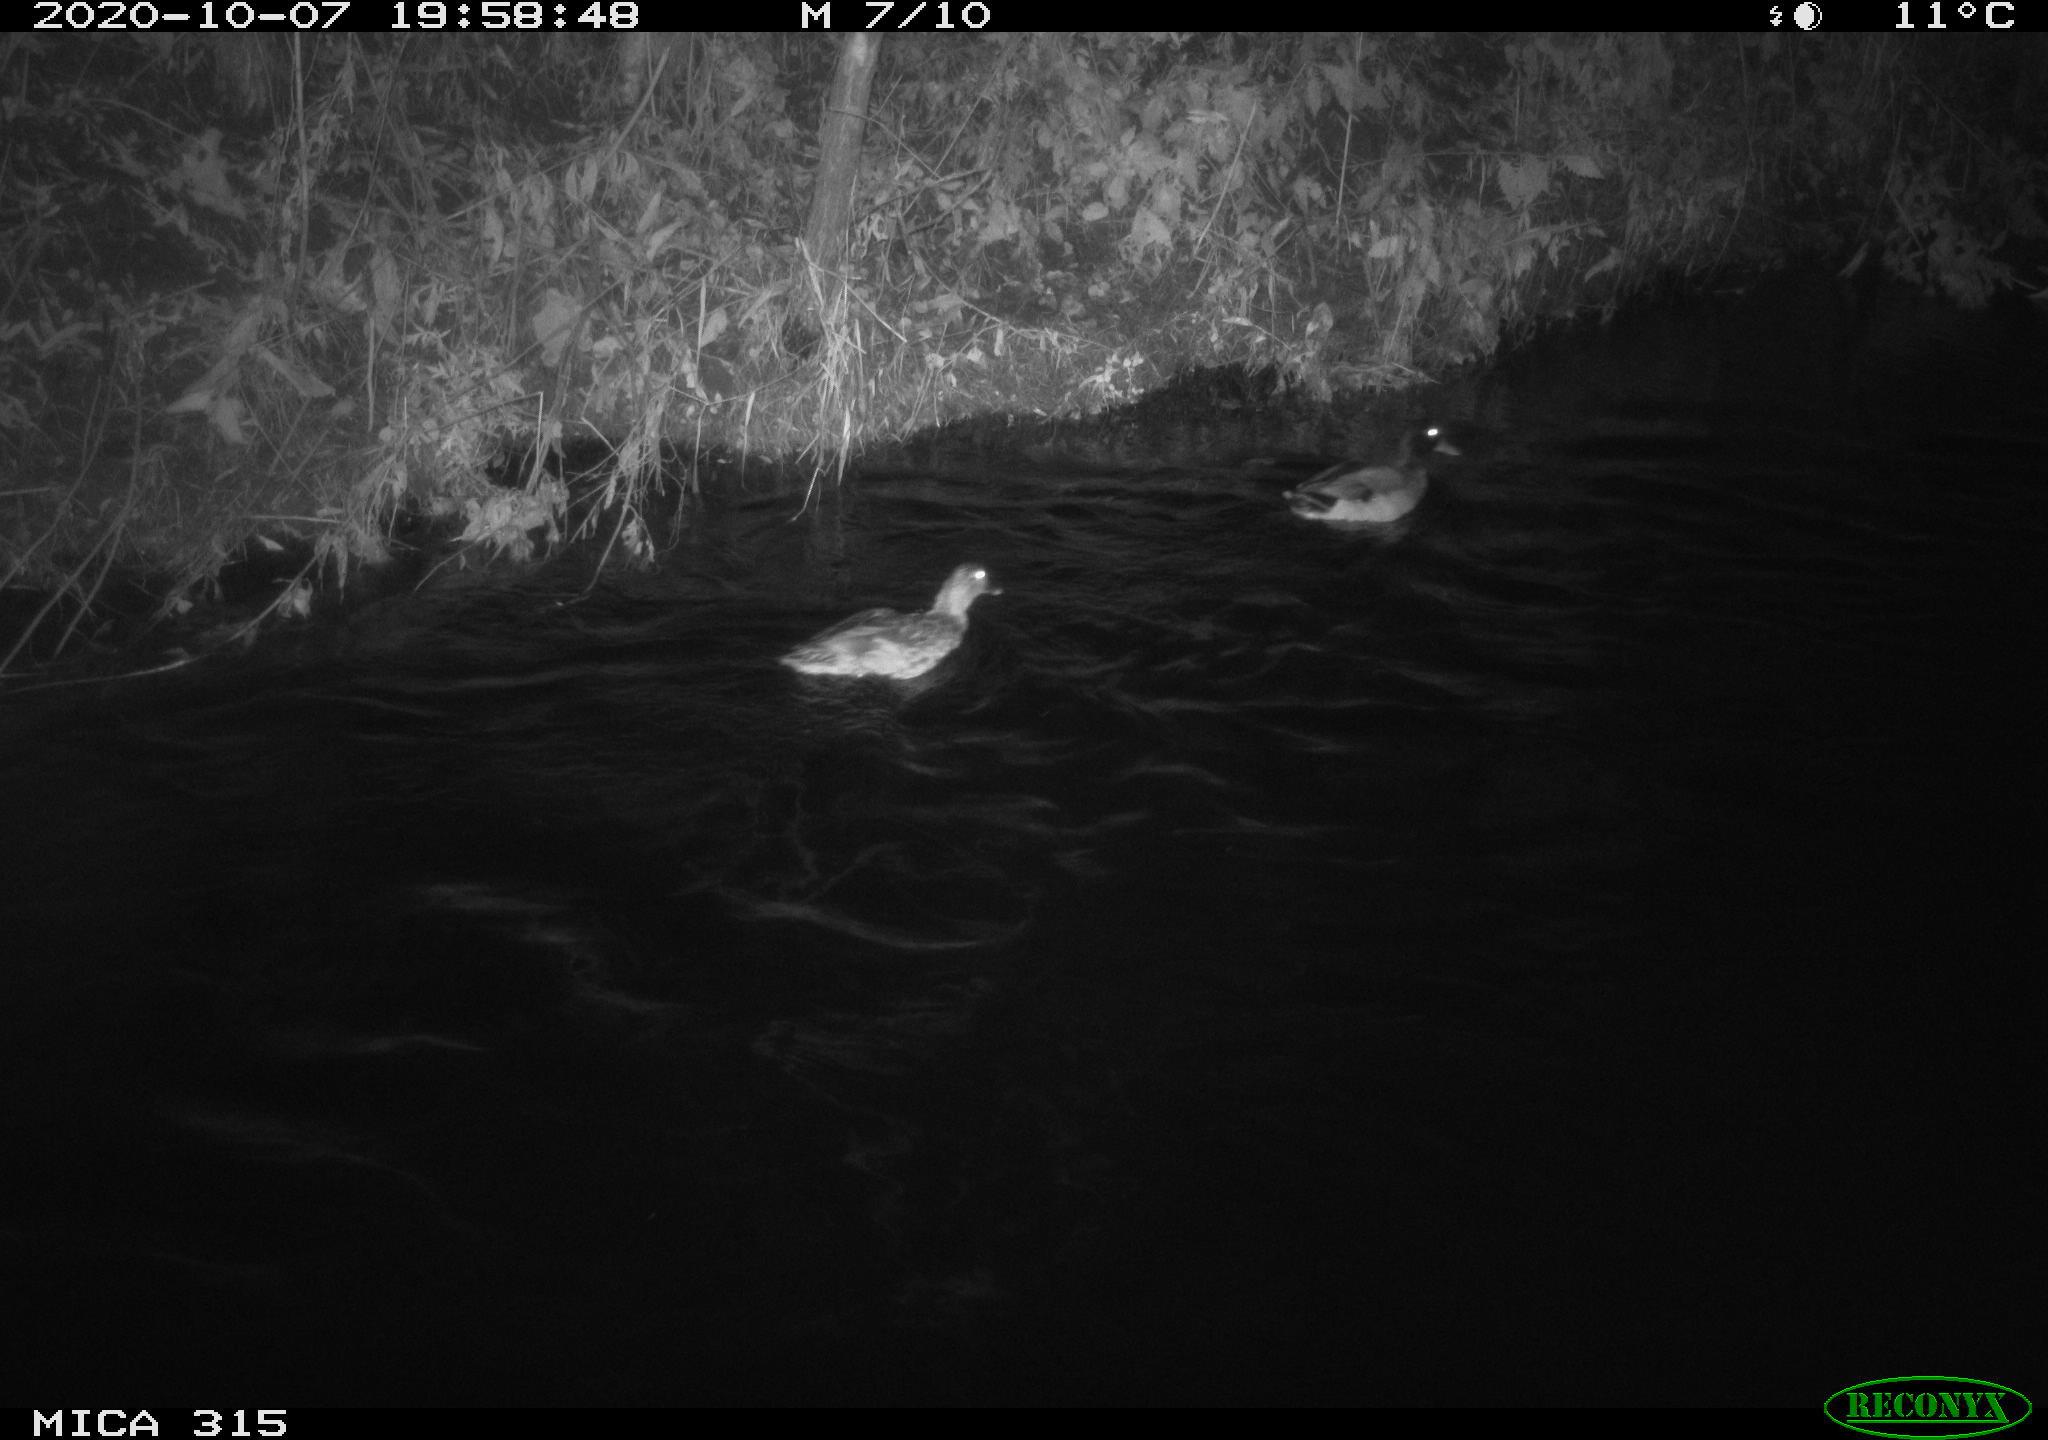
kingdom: Animalia
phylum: Chordata
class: Aves
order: Anseriformes
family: Anatidae
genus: Anas
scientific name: Anas platyrhynchos
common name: Mallard
